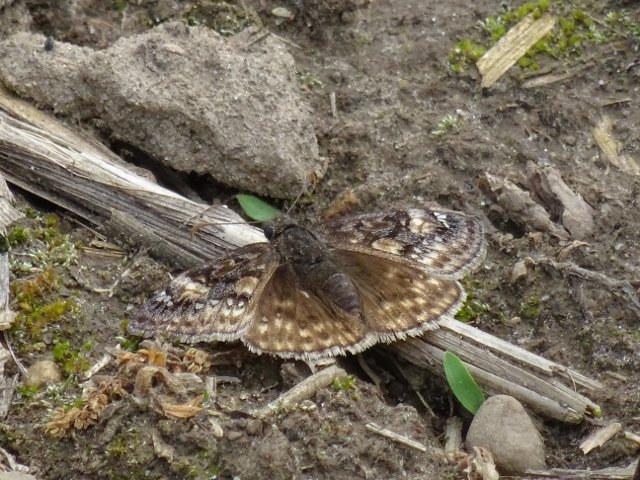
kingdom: Animalia
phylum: Arthropoda
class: Insecta
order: Lepidoptera
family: Hesperiidae
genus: Gesta
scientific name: Gesta
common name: Juvenal's Duskywing
